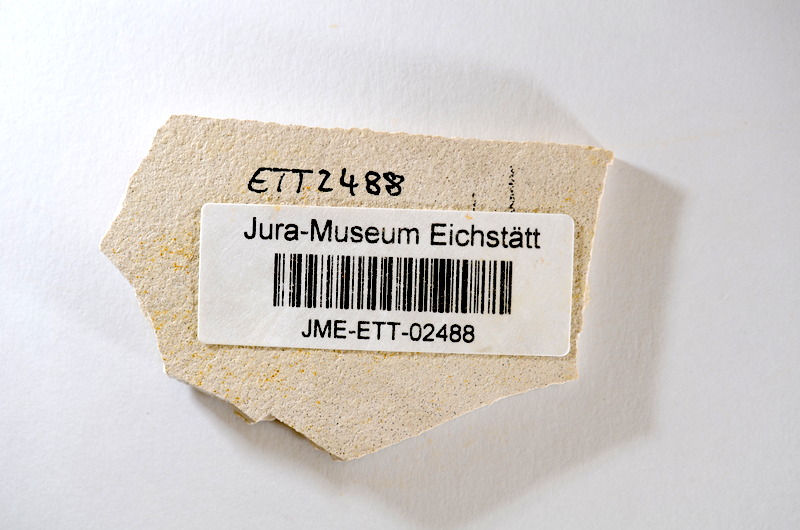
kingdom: Animalia
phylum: Chordata
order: Salmoniformes
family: Orthogonikleithridae
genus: Orthogonikleithrus
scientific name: Orthogonikleithrus hoelli
